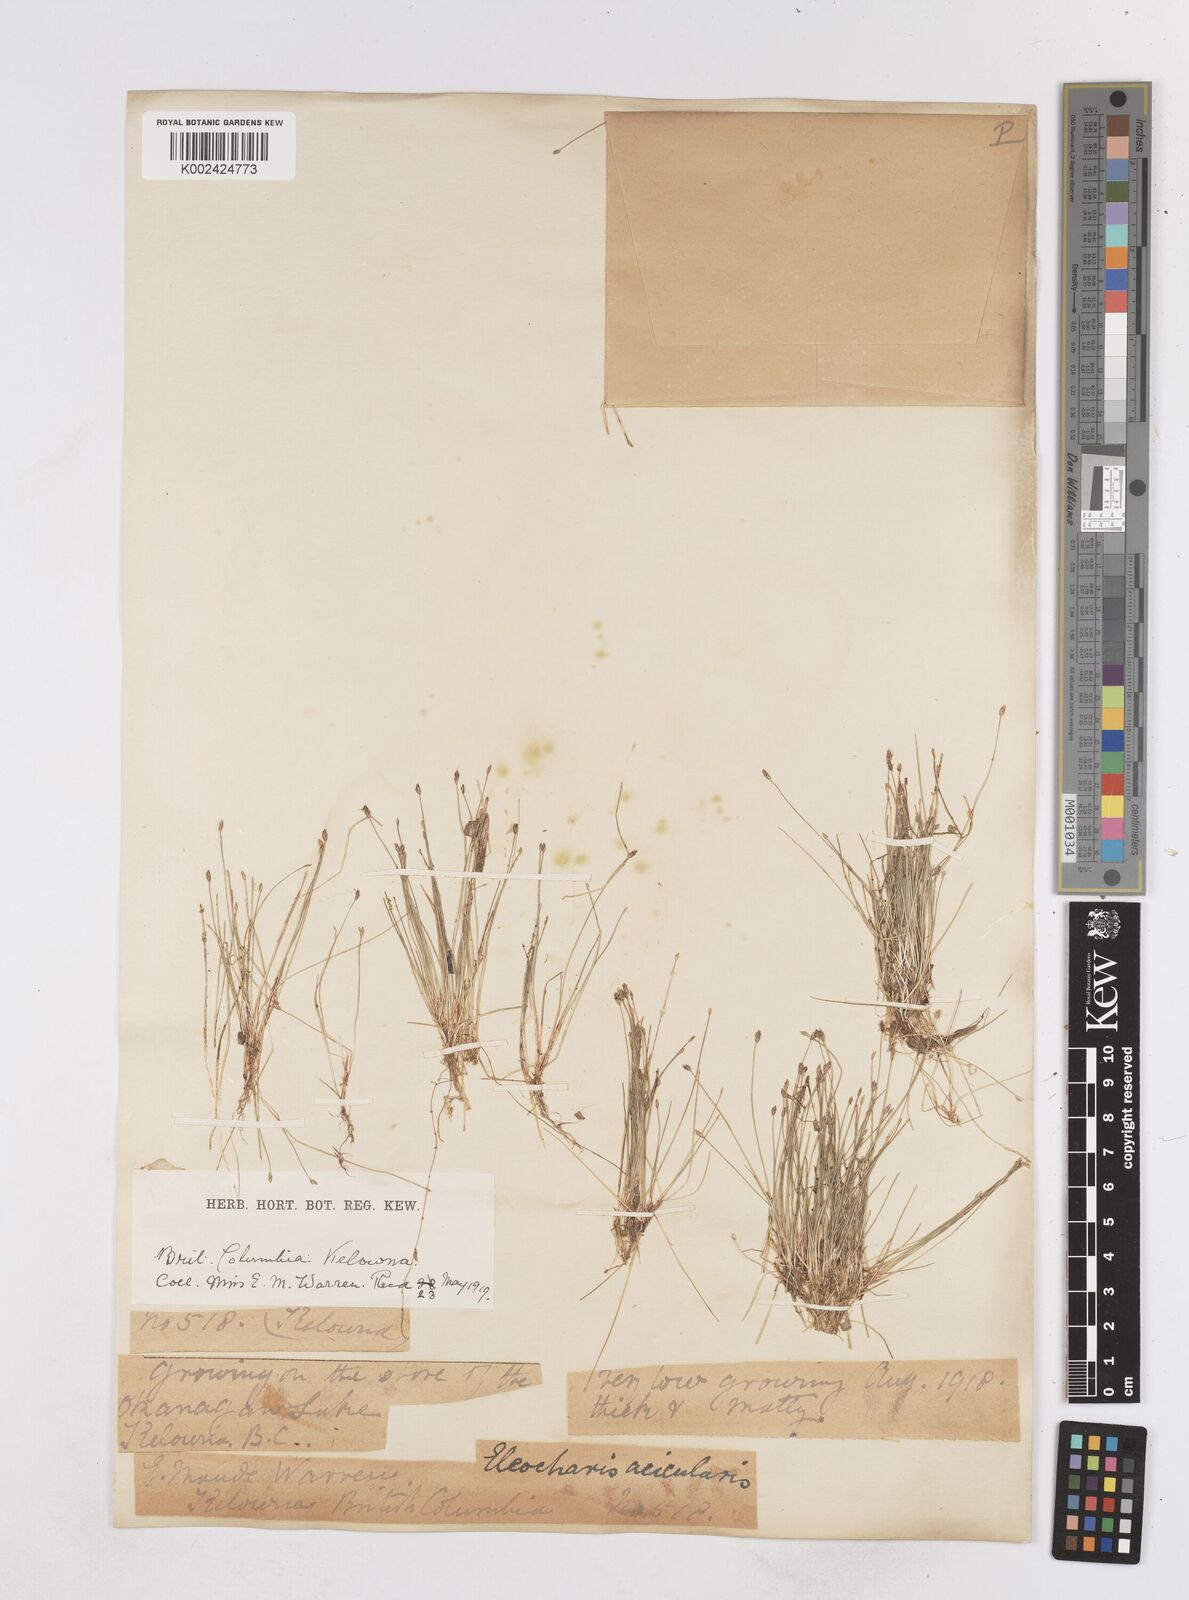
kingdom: Plantae
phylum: Tracheophyta
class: Liliopsida
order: Poales
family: Cyperaceae
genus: Eleocharis
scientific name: Eleocharis acicularis
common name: Needle spike-rush
